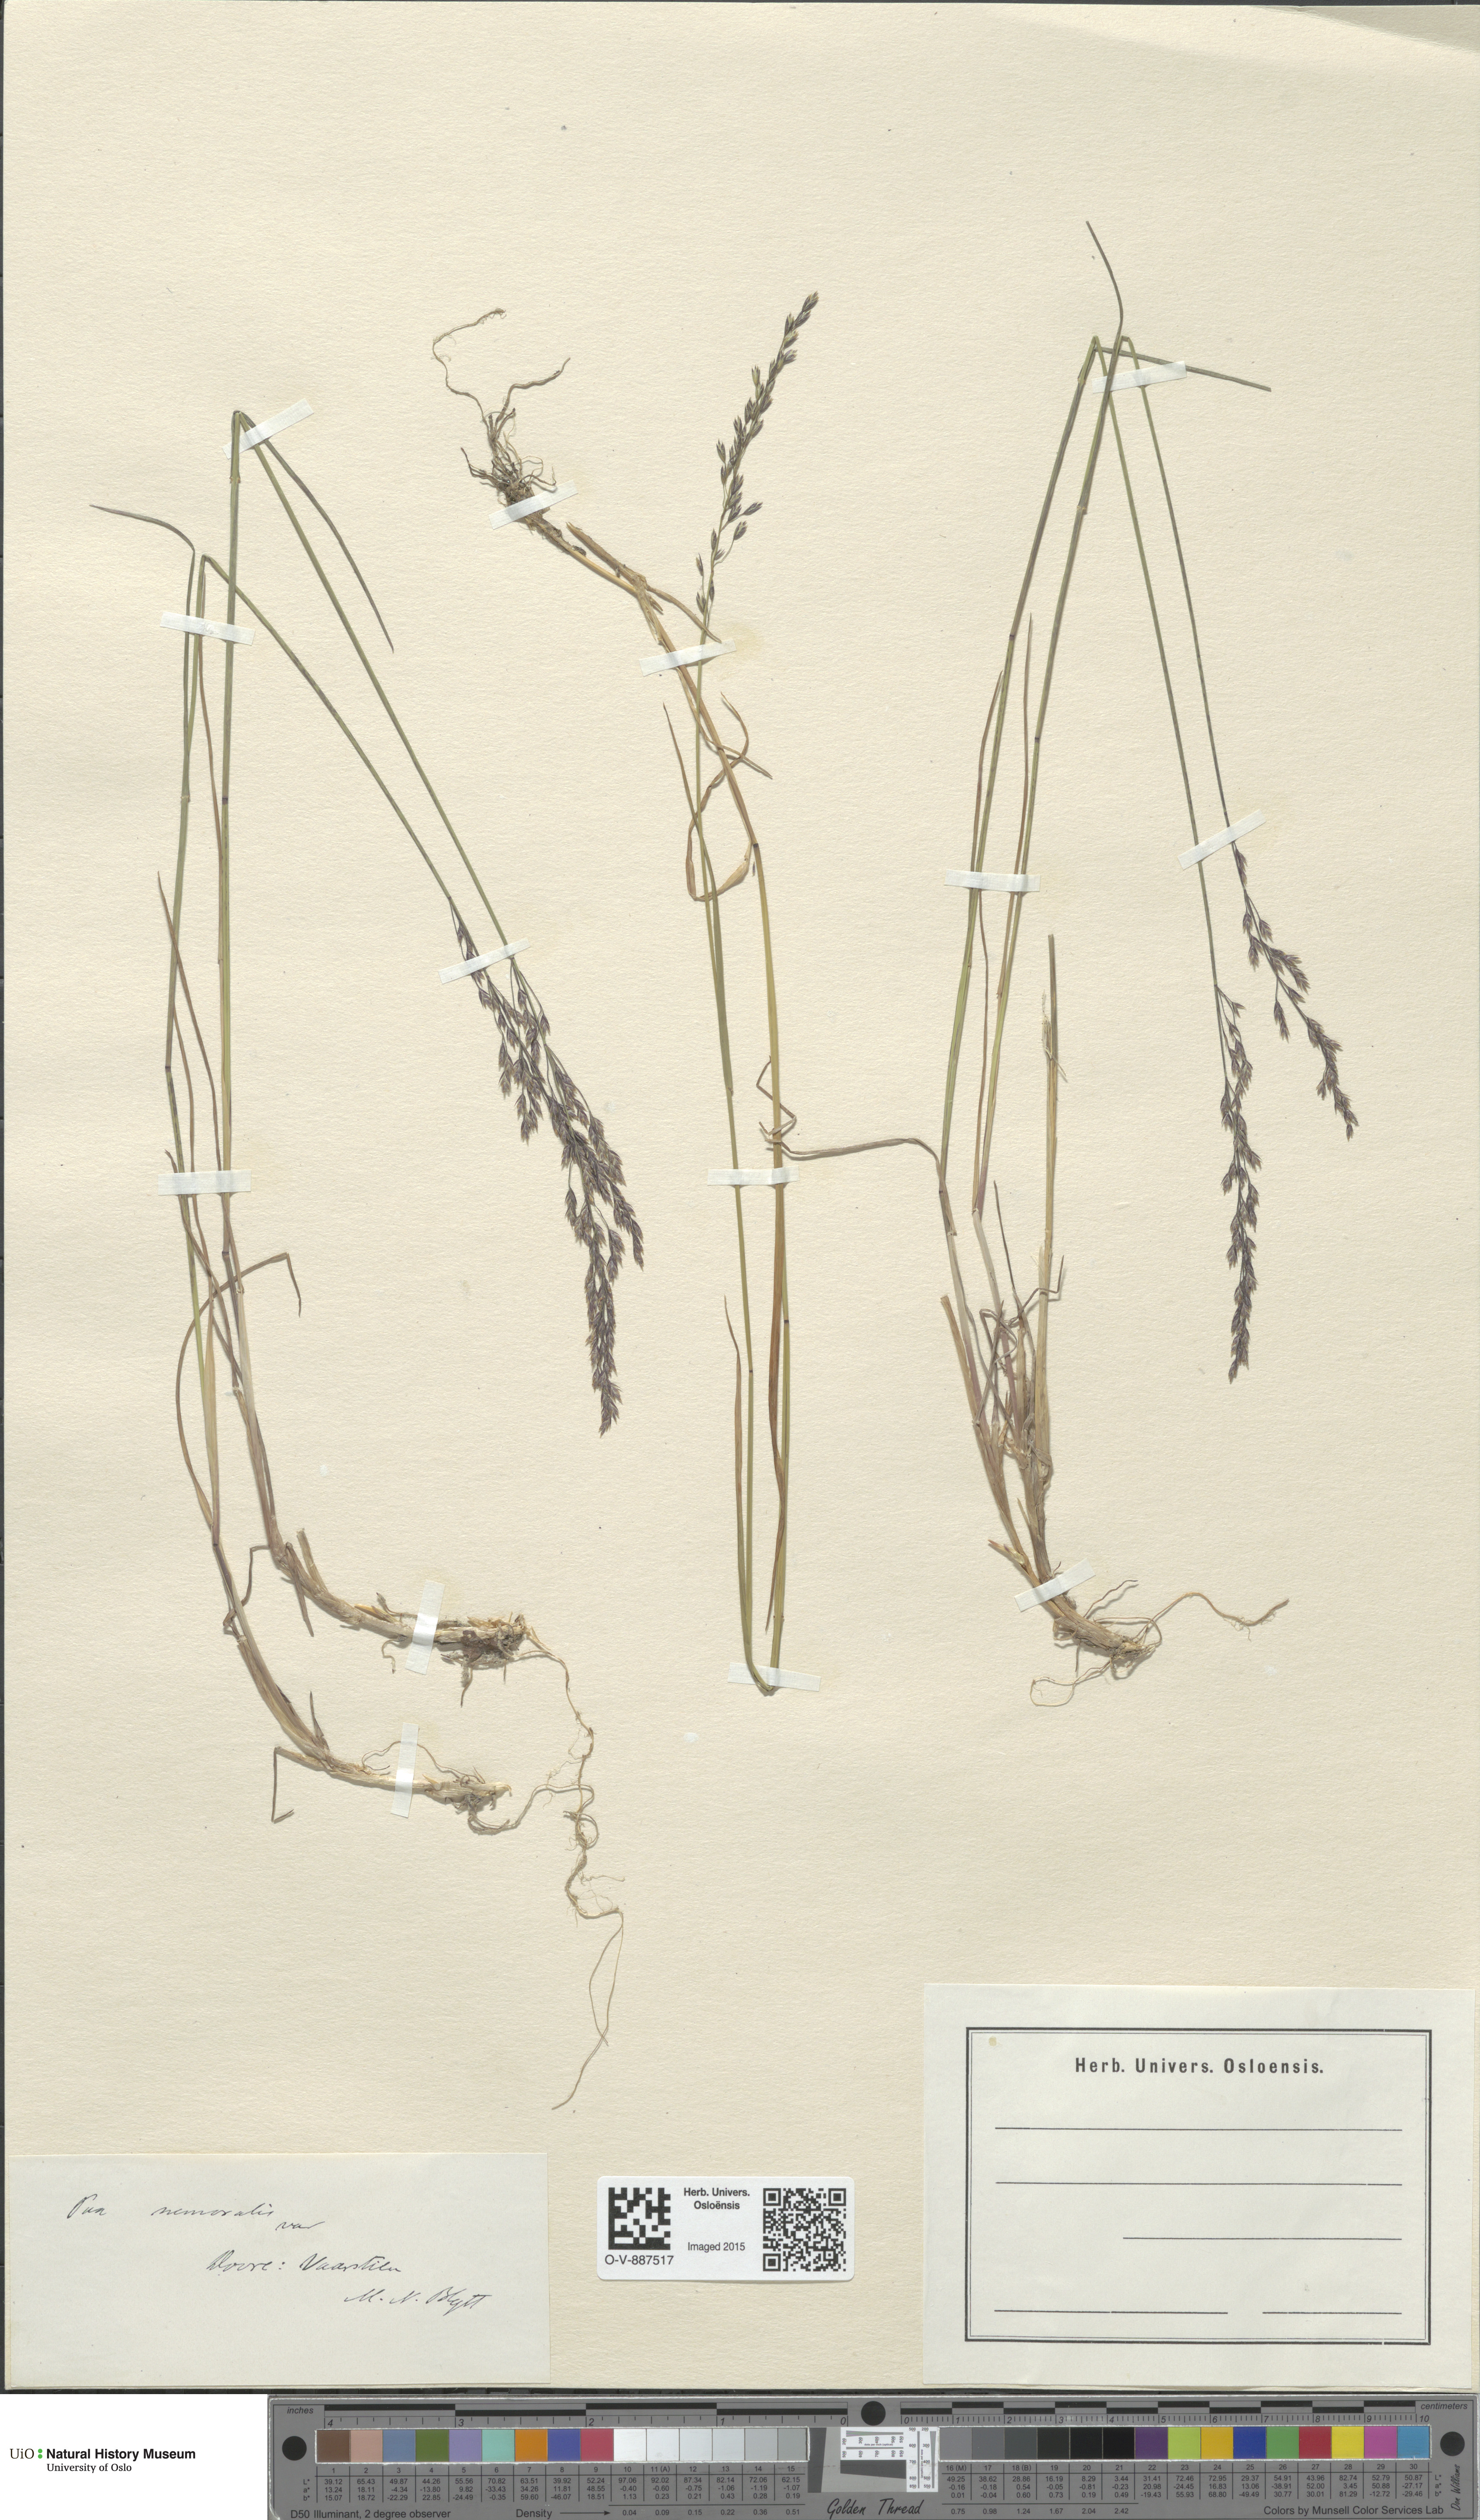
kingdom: Plantae
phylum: Tracheophyta
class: Liliopsida
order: Poales
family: Poaceae
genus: Poa
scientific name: Poa nemoralis
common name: Wood bluegrass
